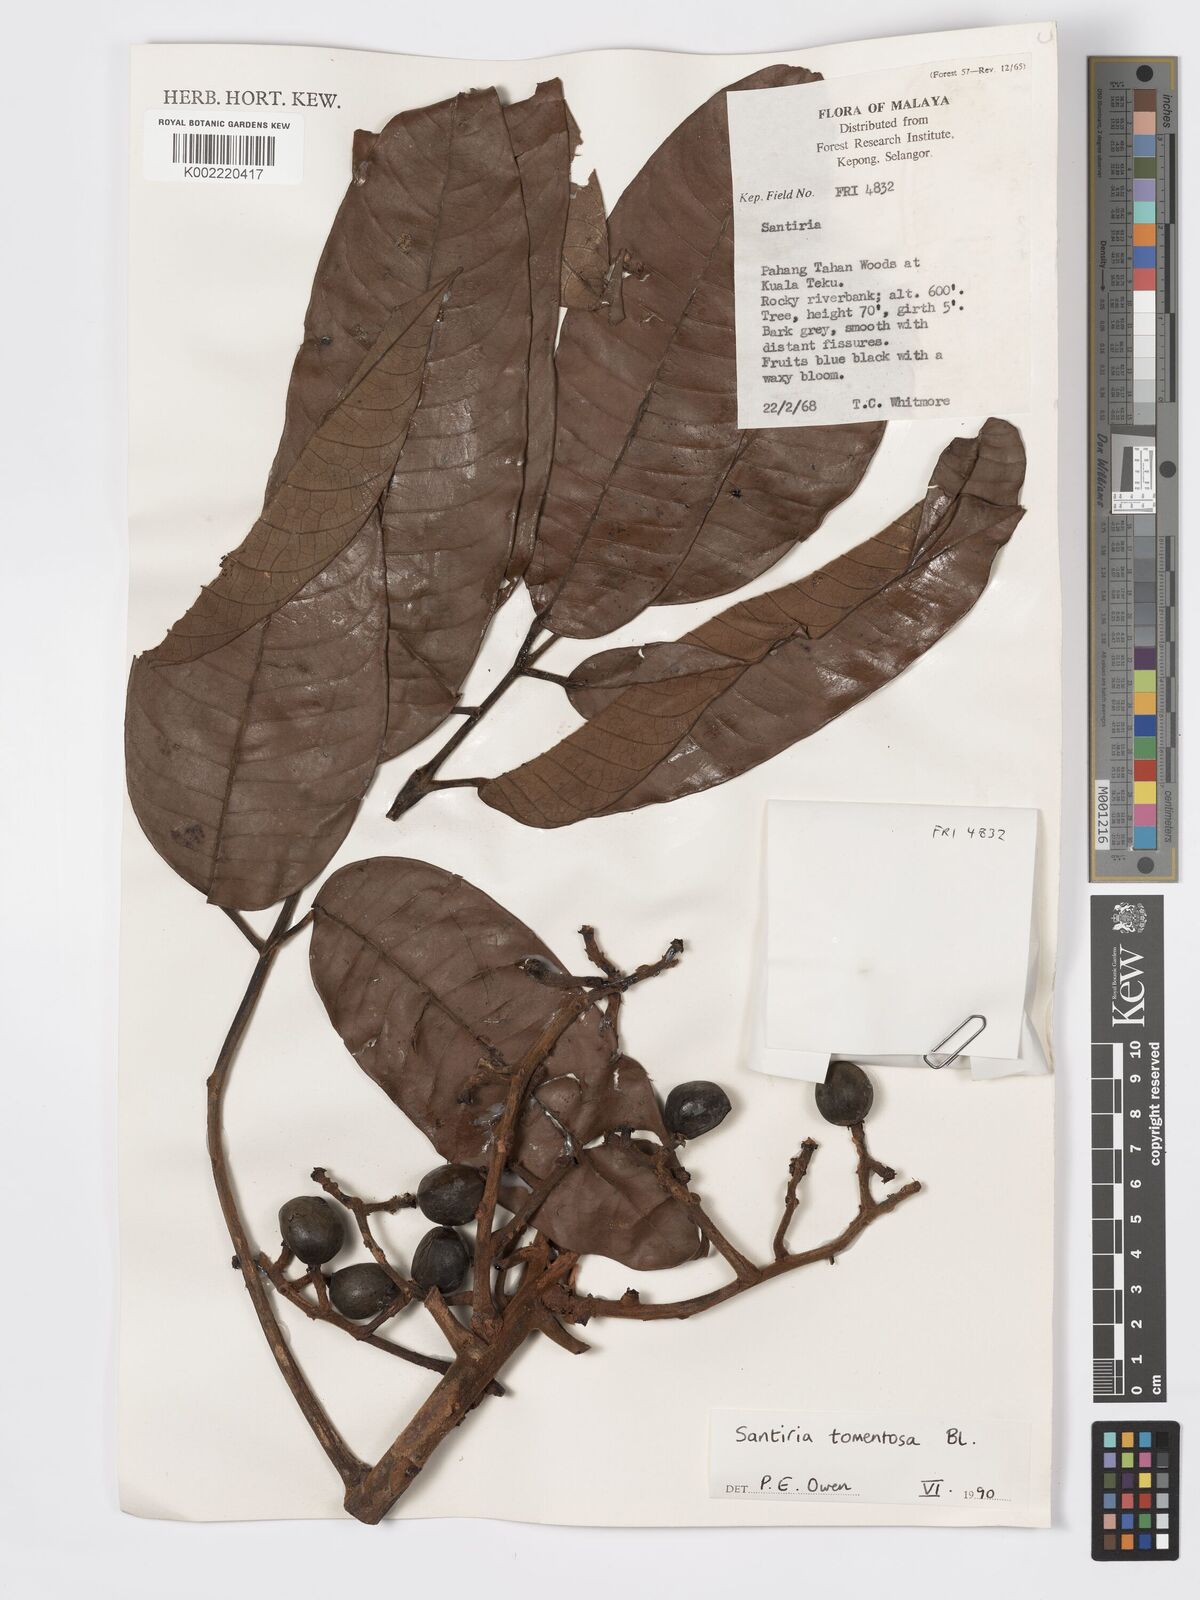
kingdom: Plantae
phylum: Tracheophyta
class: Magnoliopsida
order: Sapindales
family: Burseraceae
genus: Santiria
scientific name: Santiria tomentosa
